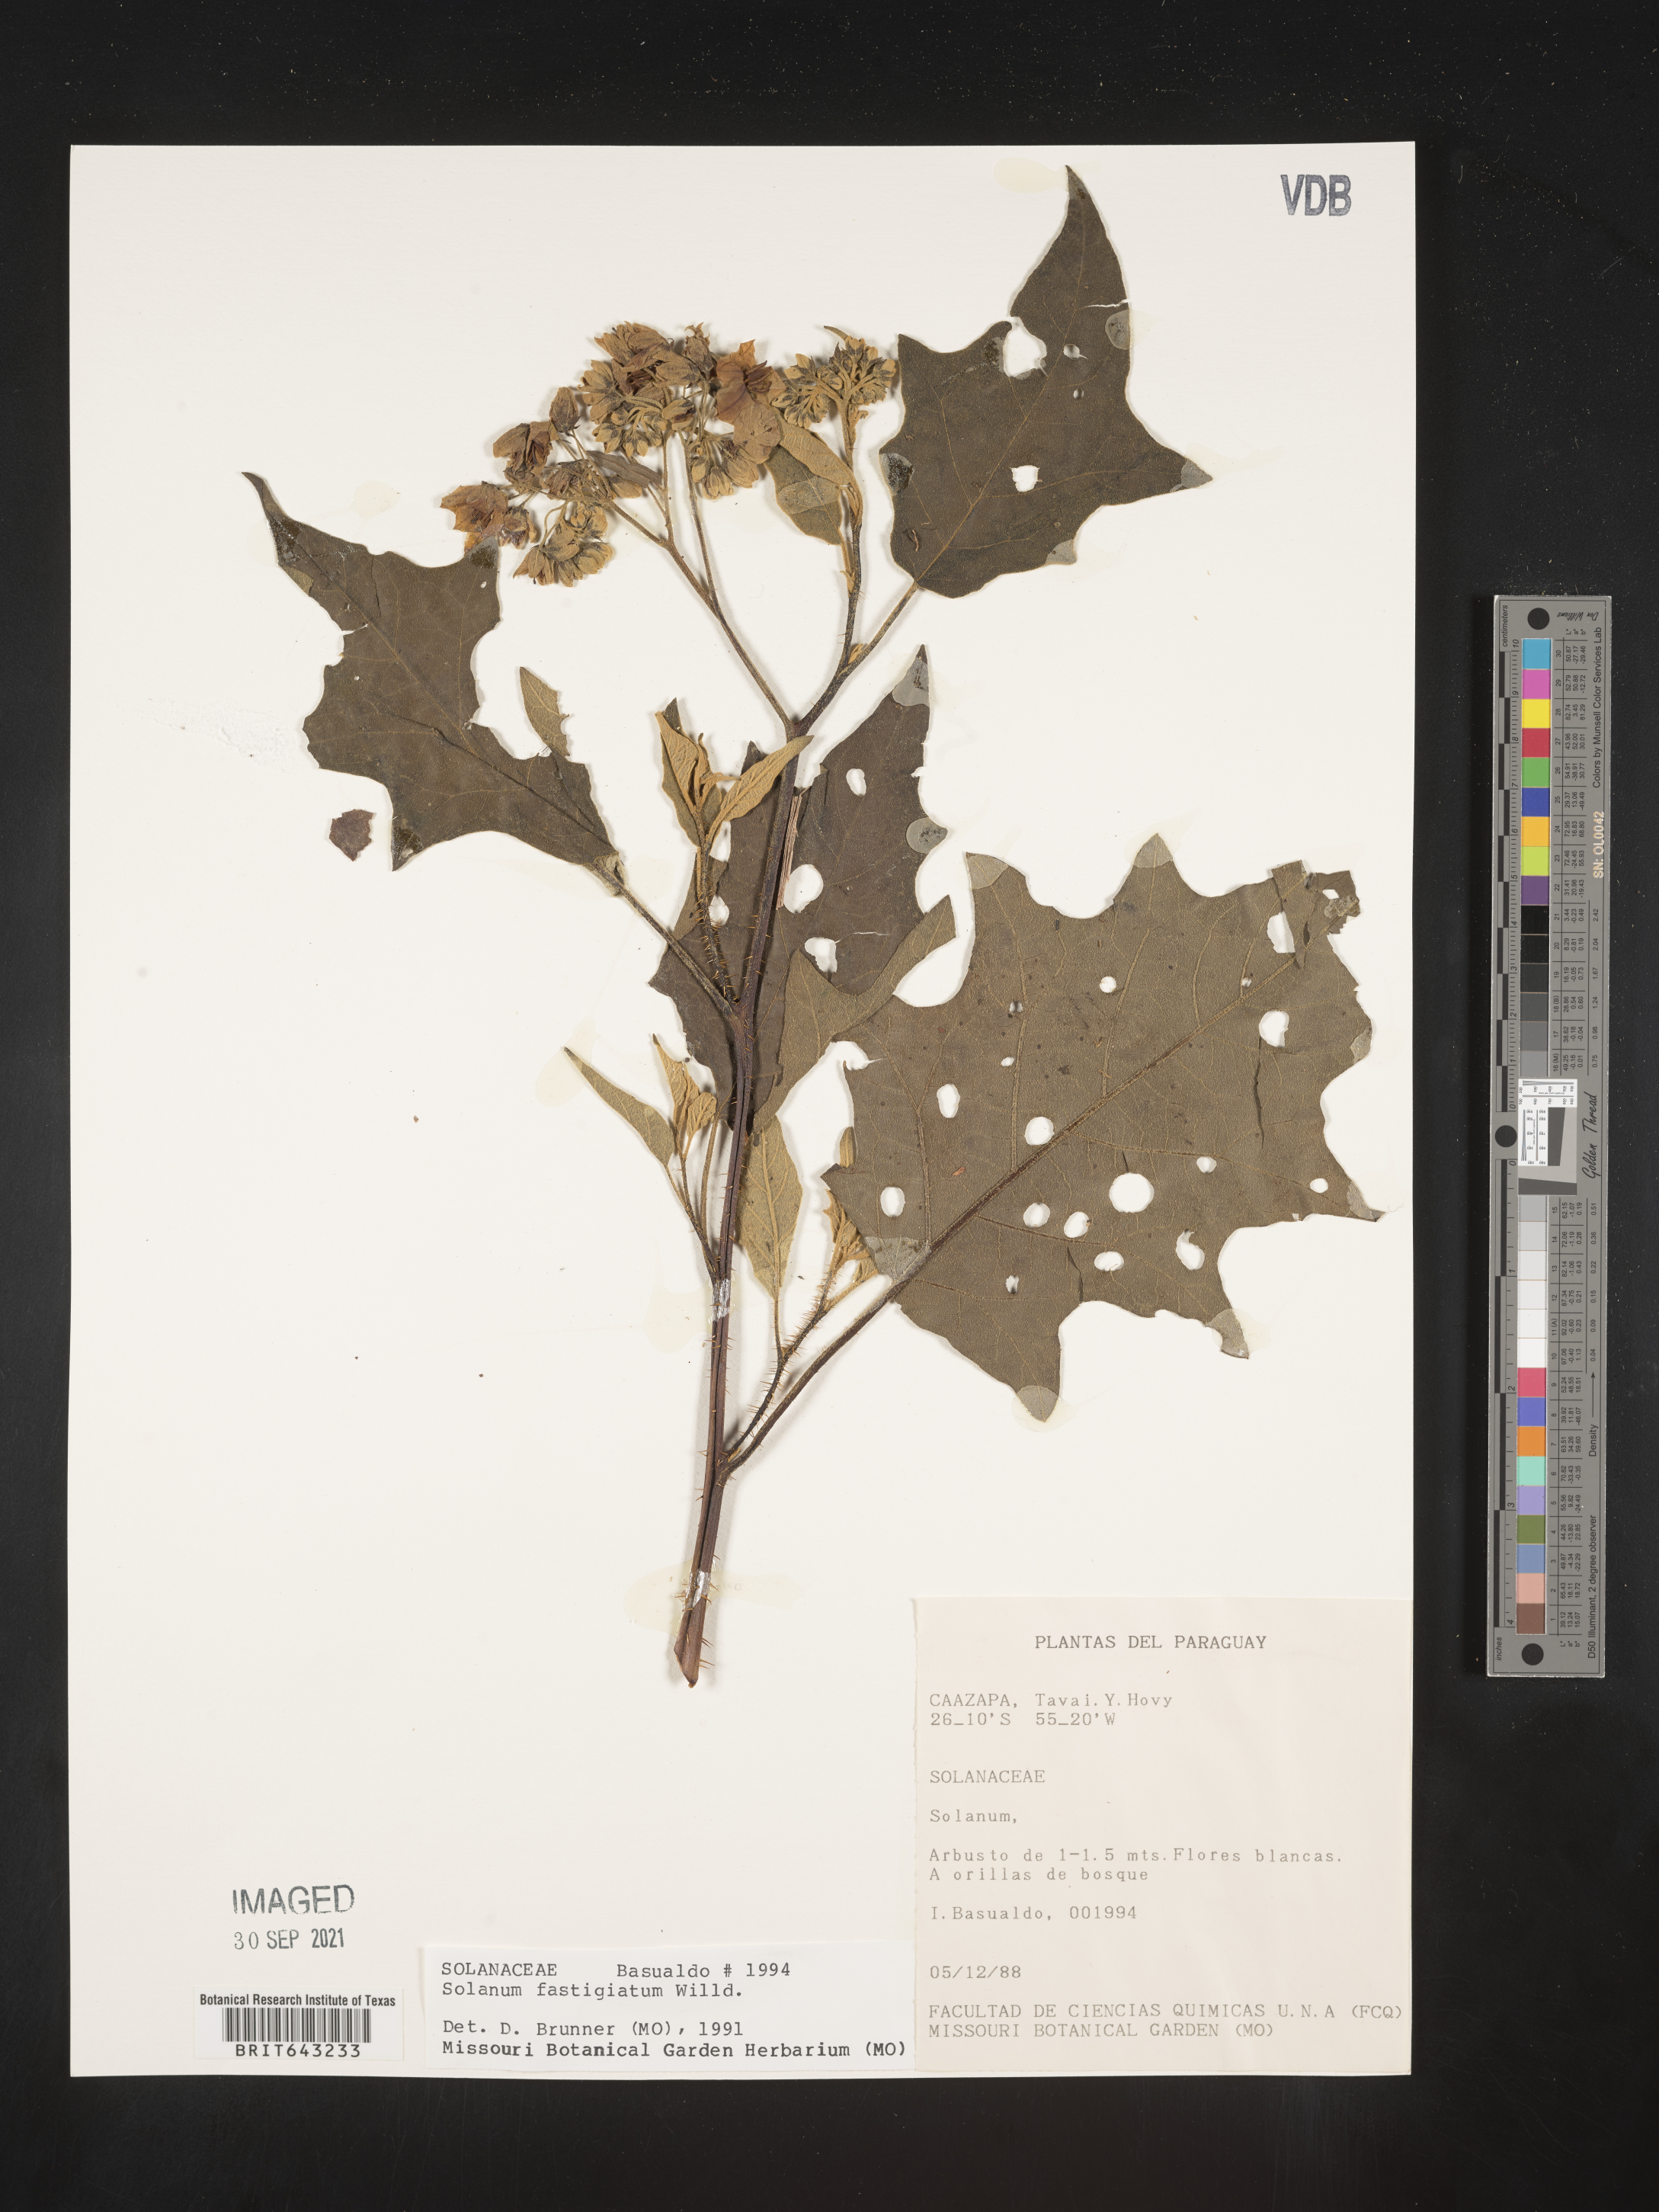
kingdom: Plantae
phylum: Tracheophyta
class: Magnoliopsida
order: Solanales
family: Solanaceae
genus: Solanum
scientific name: Solanum
